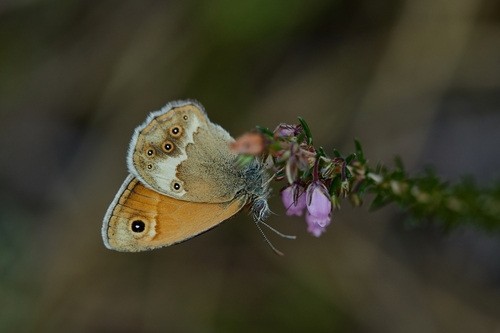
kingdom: Animalia
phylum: Arthropoda
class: Insecta
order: Lepidoptera
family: Nymphalidae
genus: Coenonympha
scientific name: Coenonympha dorus
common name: Dusky heath
